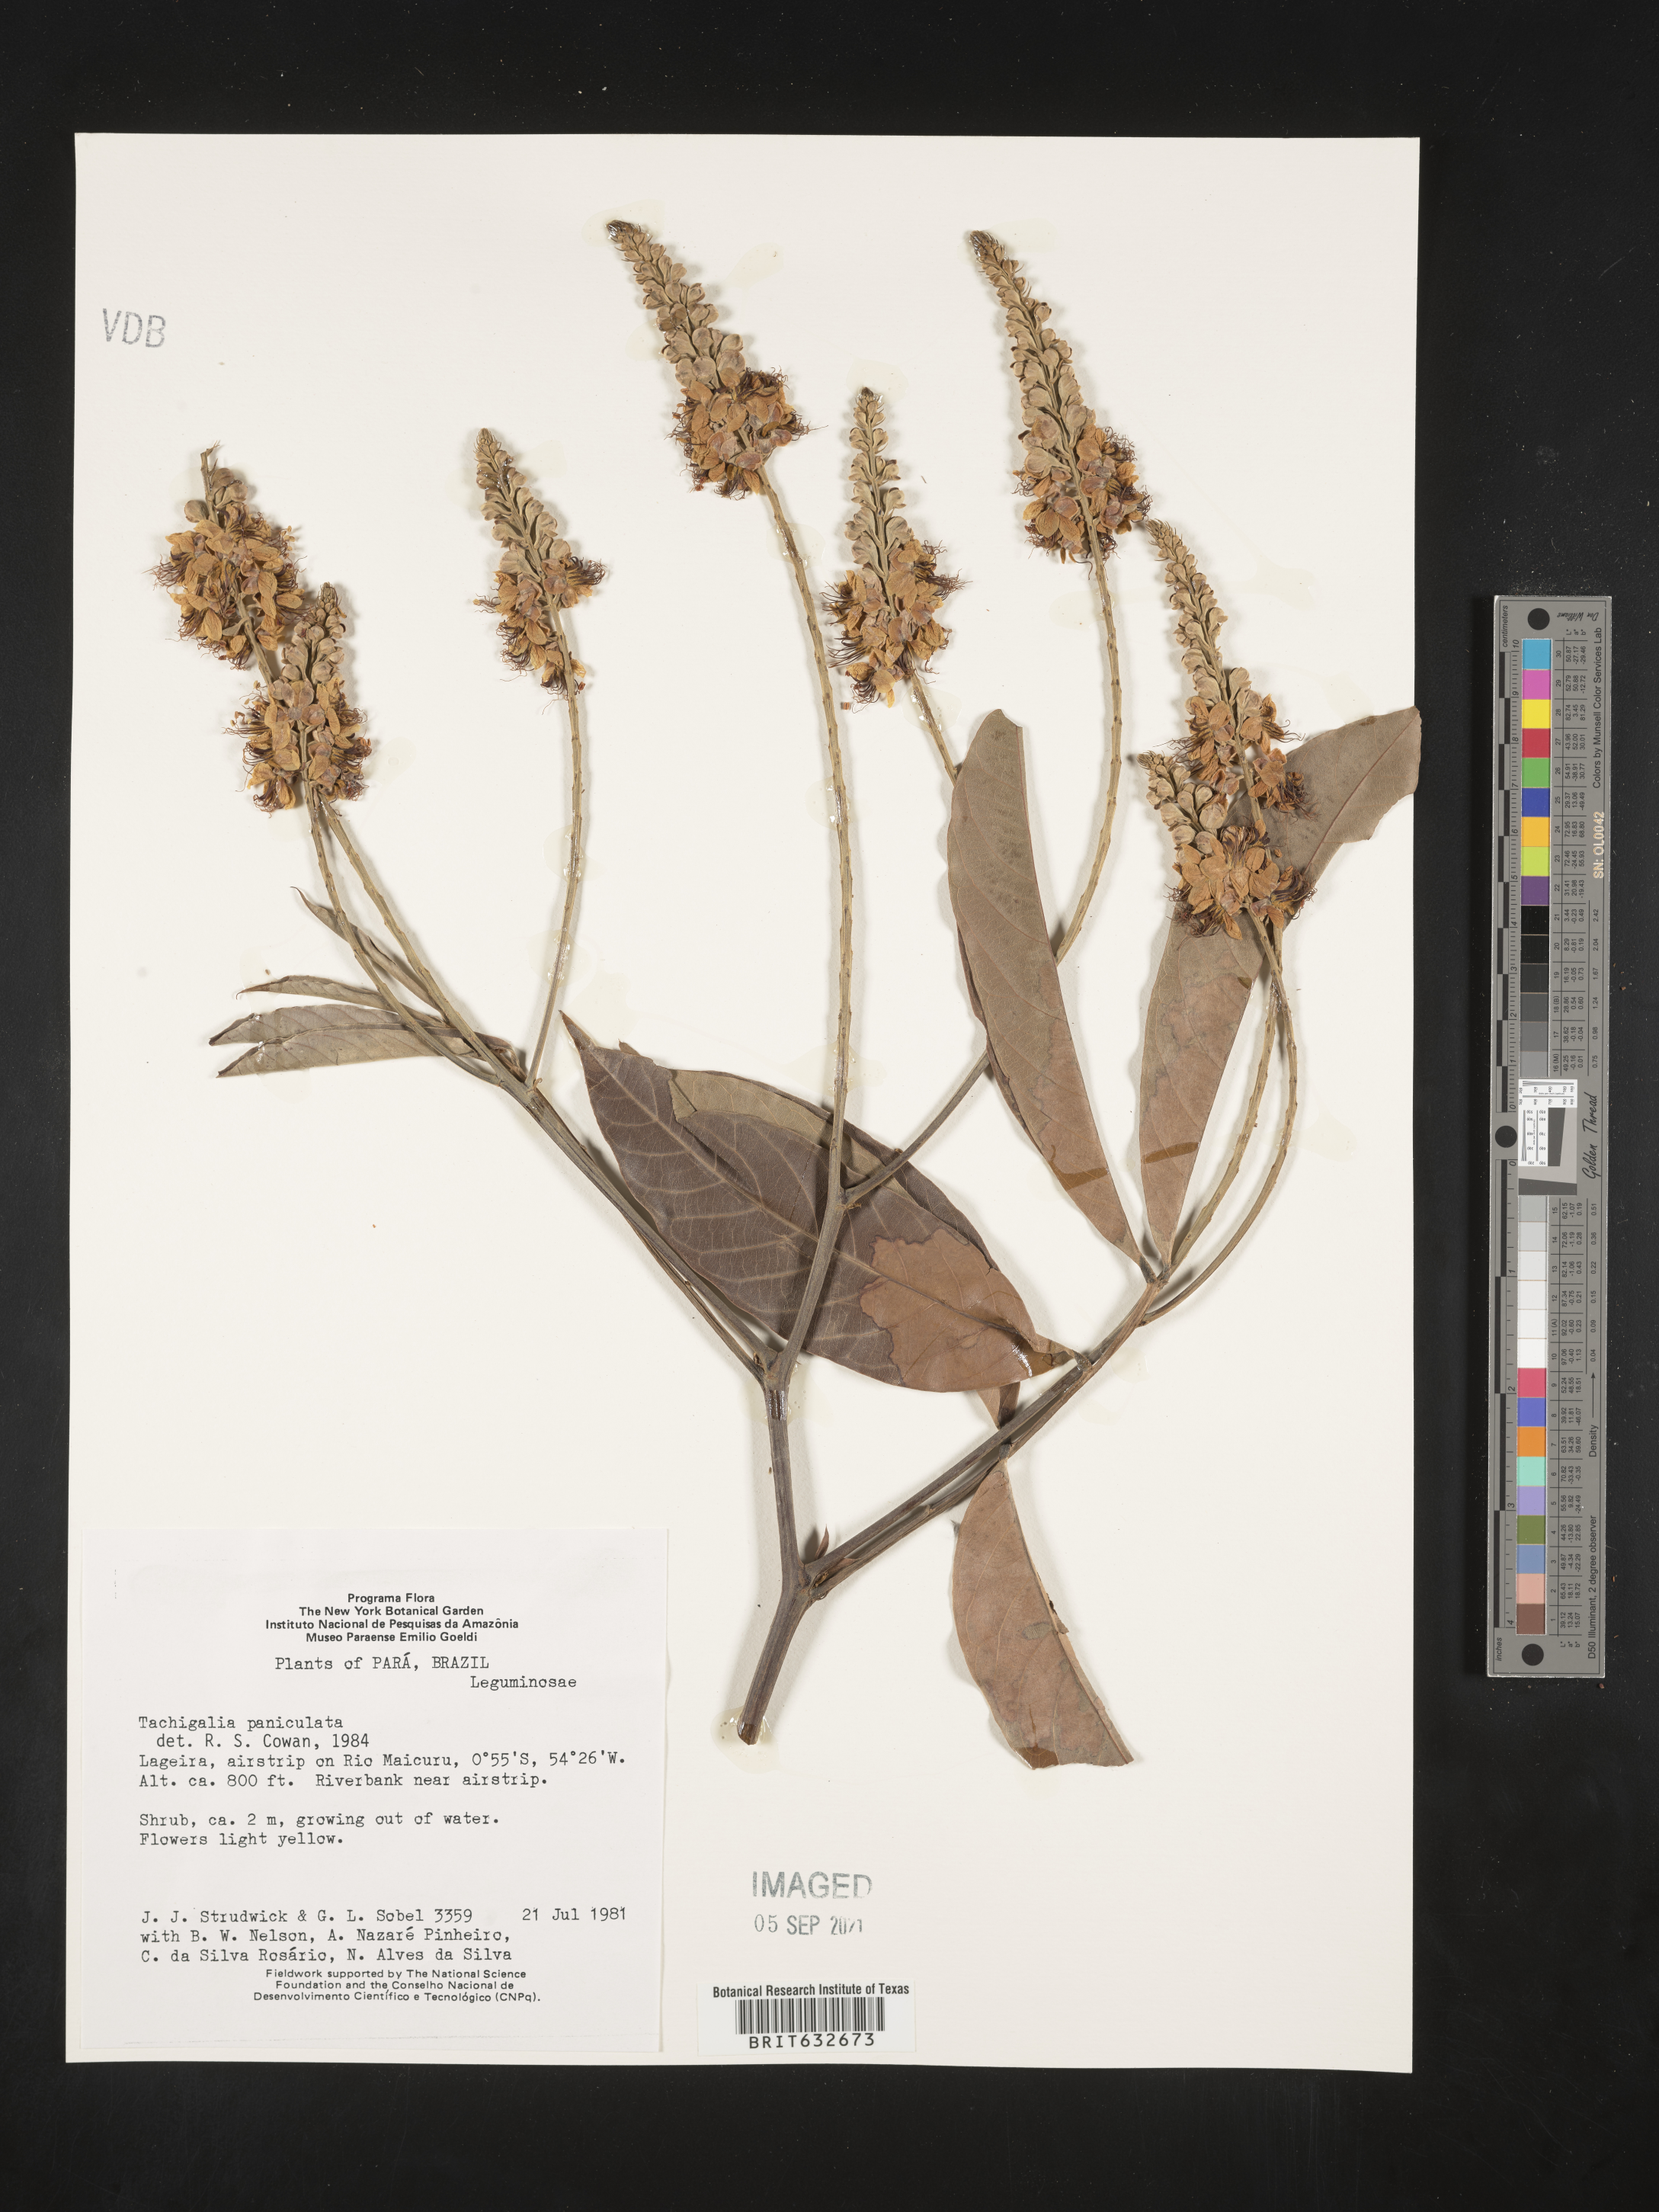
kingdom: Plantae
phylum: Tracheophyta
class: Magnoliopsida
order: Fabales
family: Fabaceae
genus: Tachigali
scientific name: Tachigali
